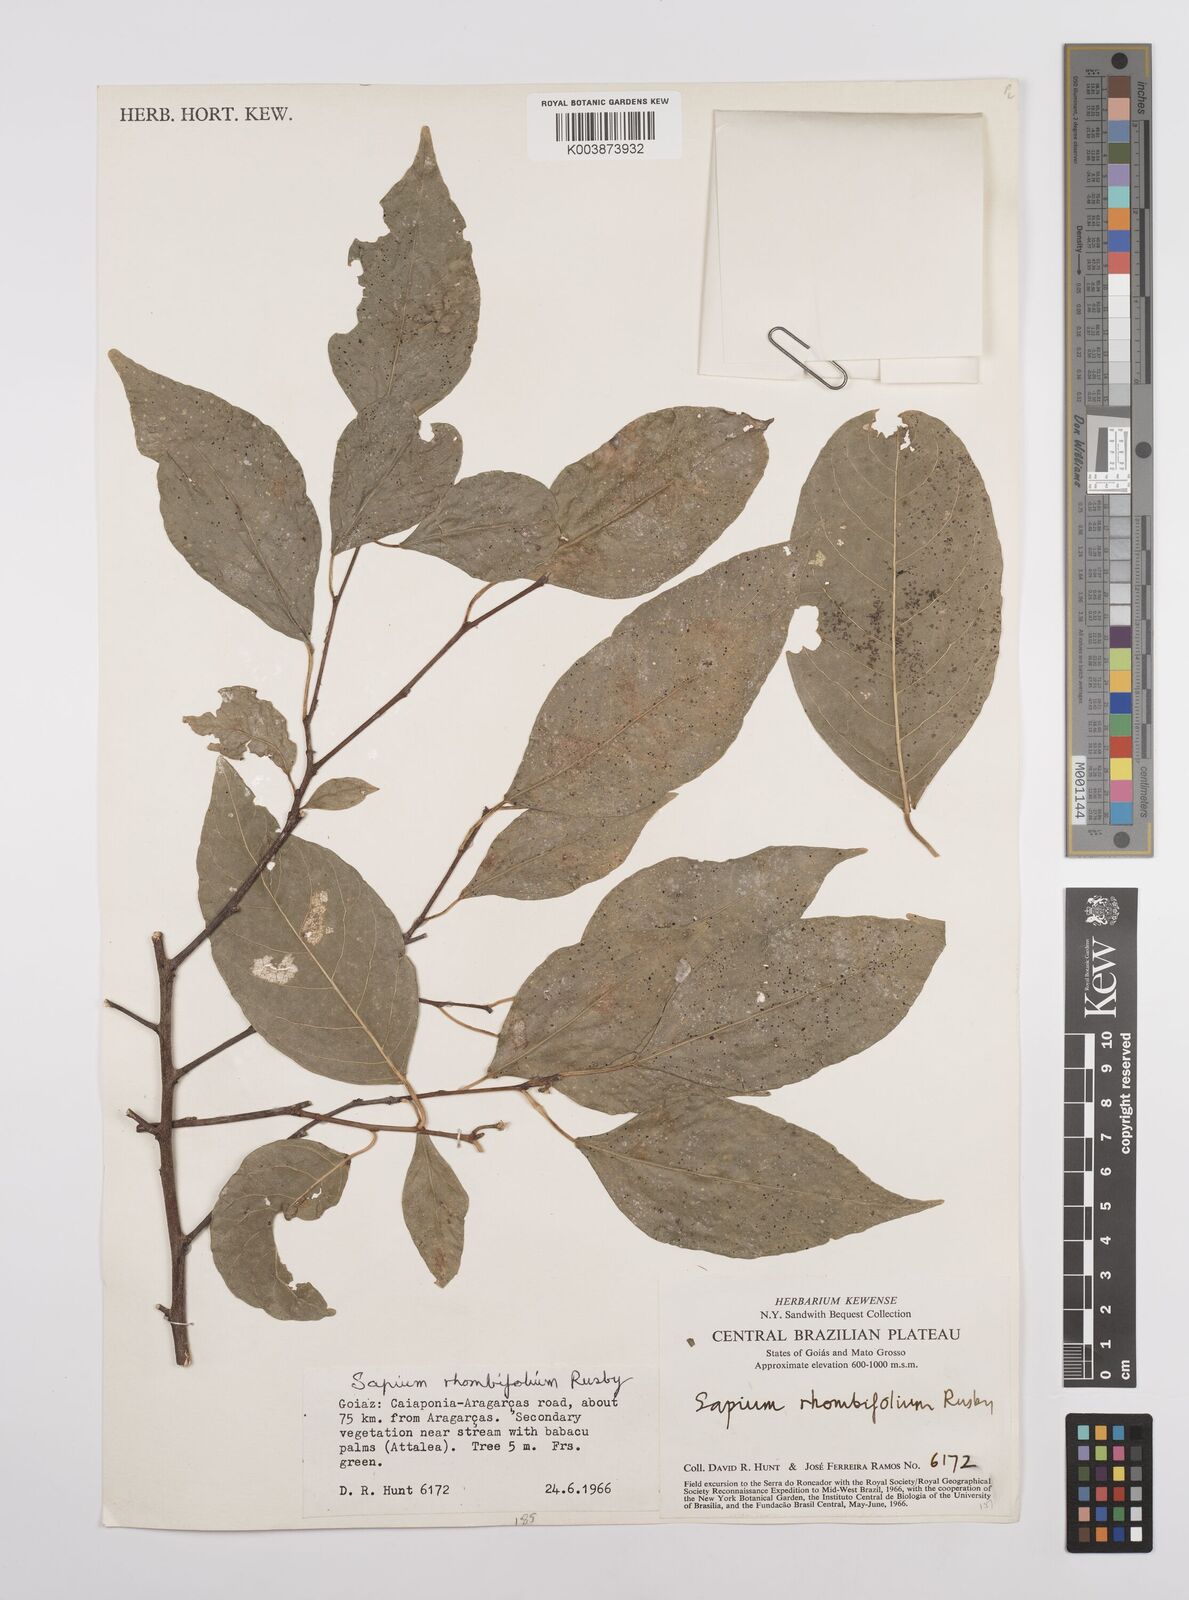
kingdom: Plantae
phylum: Tracheophyta
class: Magnoliopsida
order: Malpighiales
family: Euphorbiaceae
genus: Pleradenophora
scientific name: Pleradenophora membranifolia
